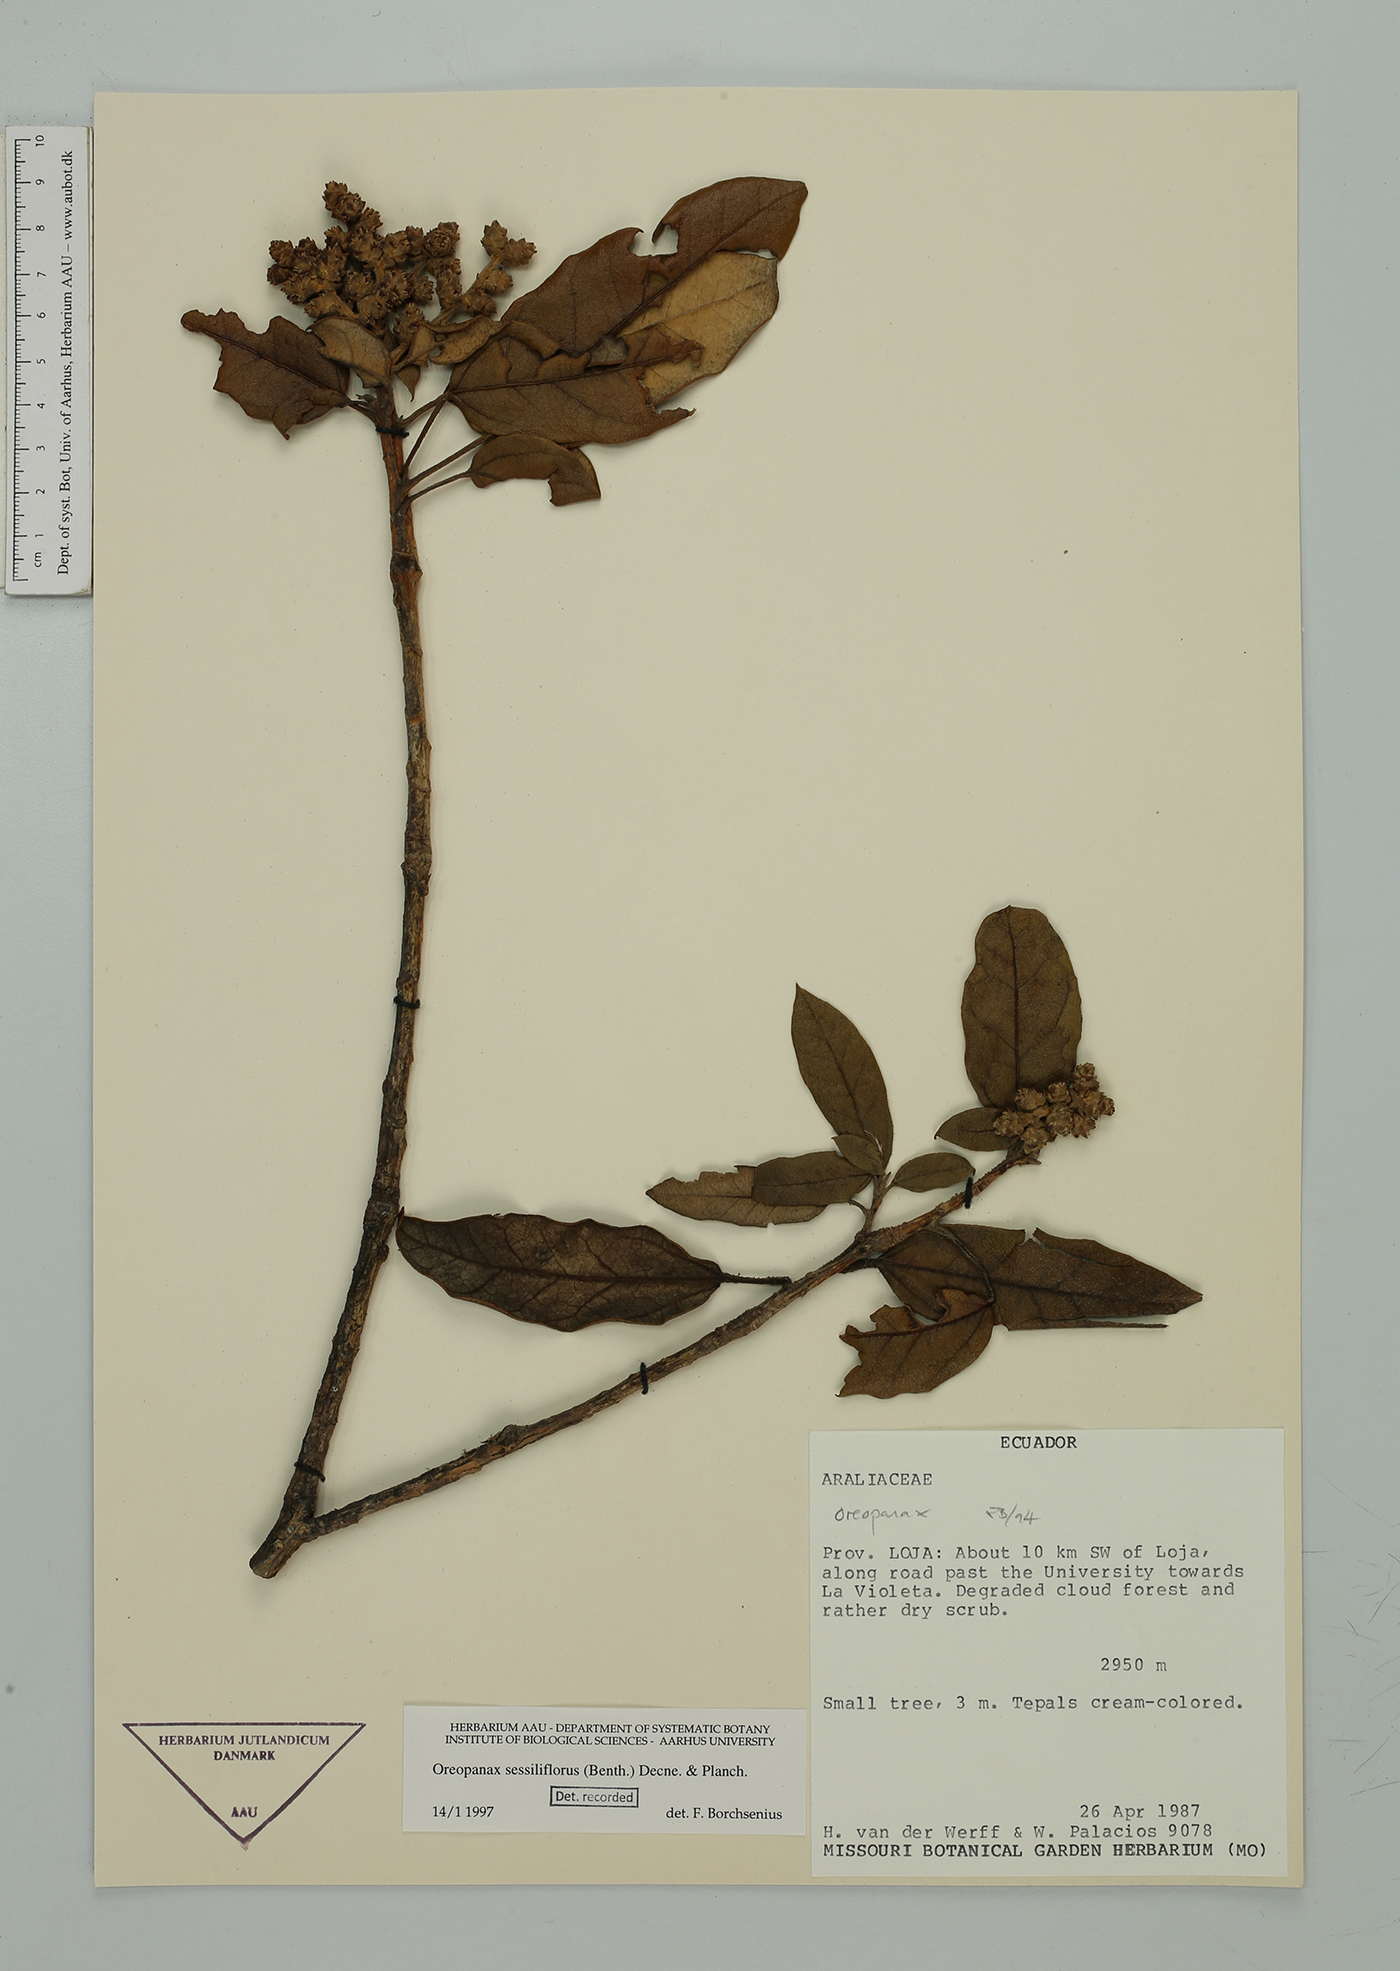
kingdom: Plantae
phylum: Tracheophyta
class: Magnoliopsida
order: Apiales
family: Araliaceae
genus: Oreopanax
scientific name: Oreopanax sessiliflorus
